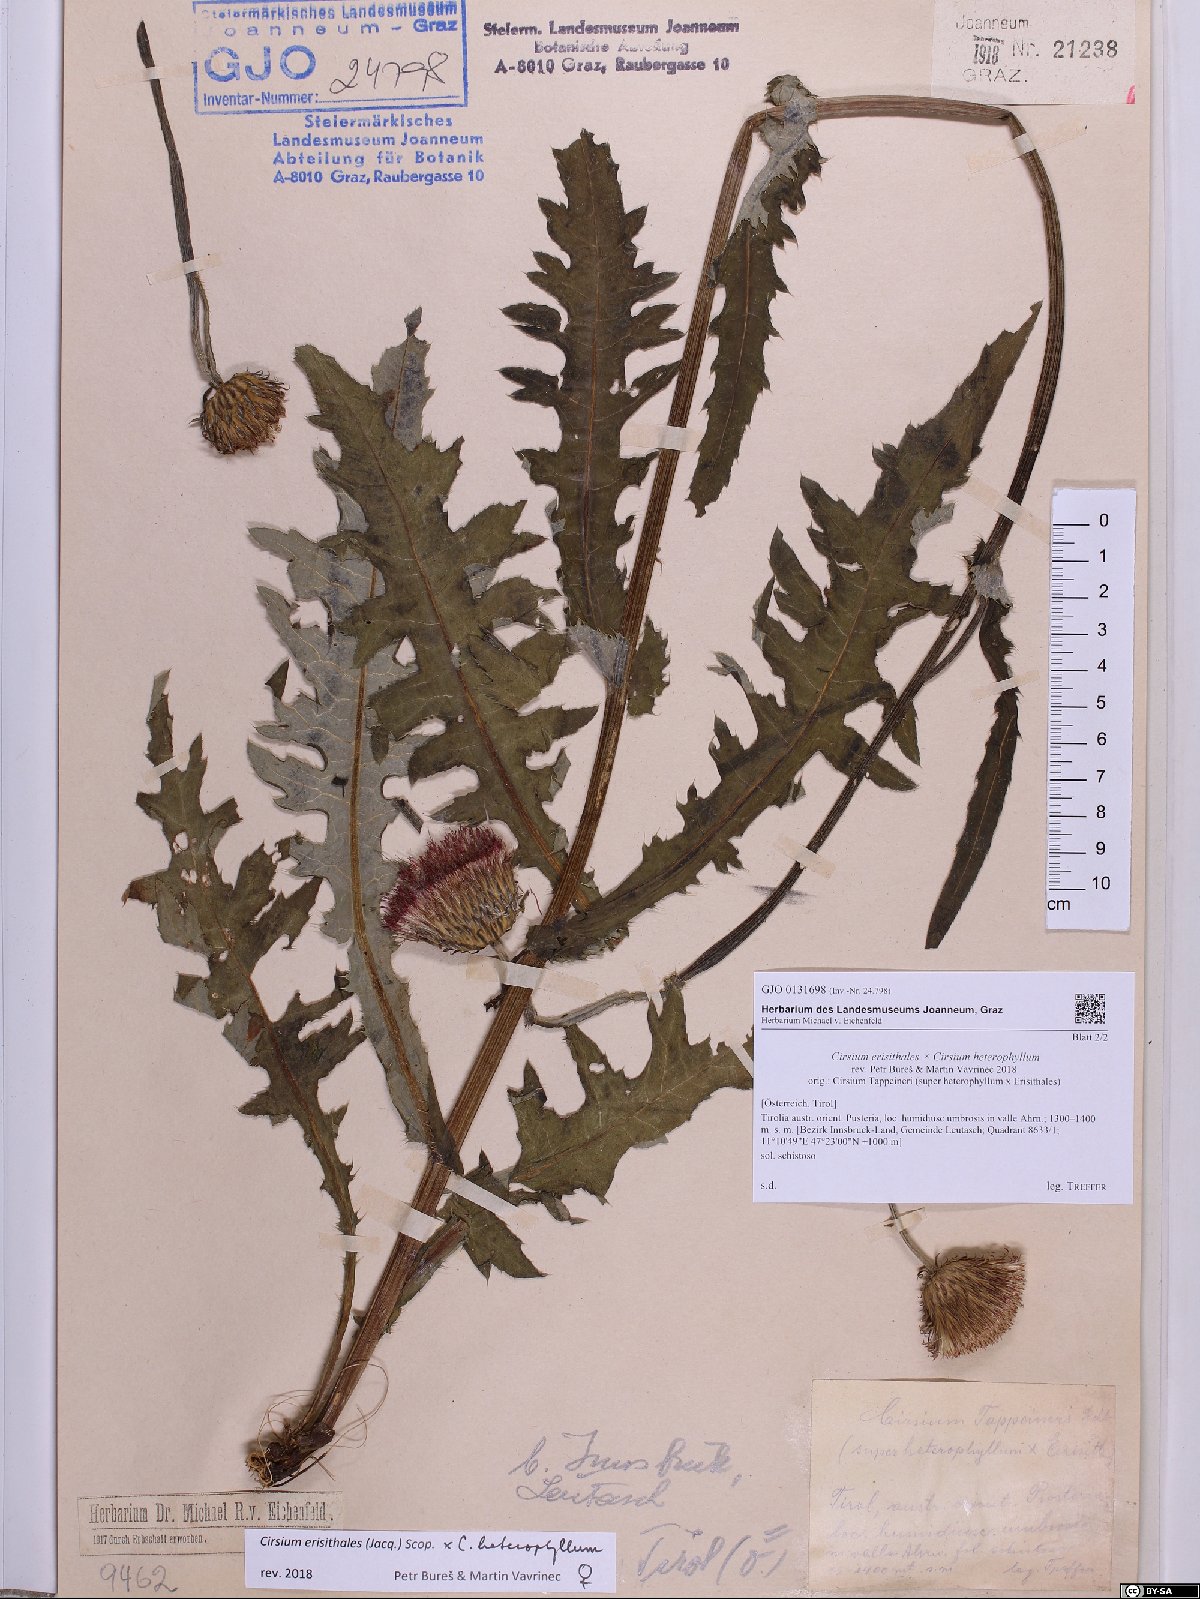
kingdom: Plantae
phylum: Tracheophyta
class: Magnoliopsida
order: Asterales
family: Asteraceae
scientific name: Asteraceae
